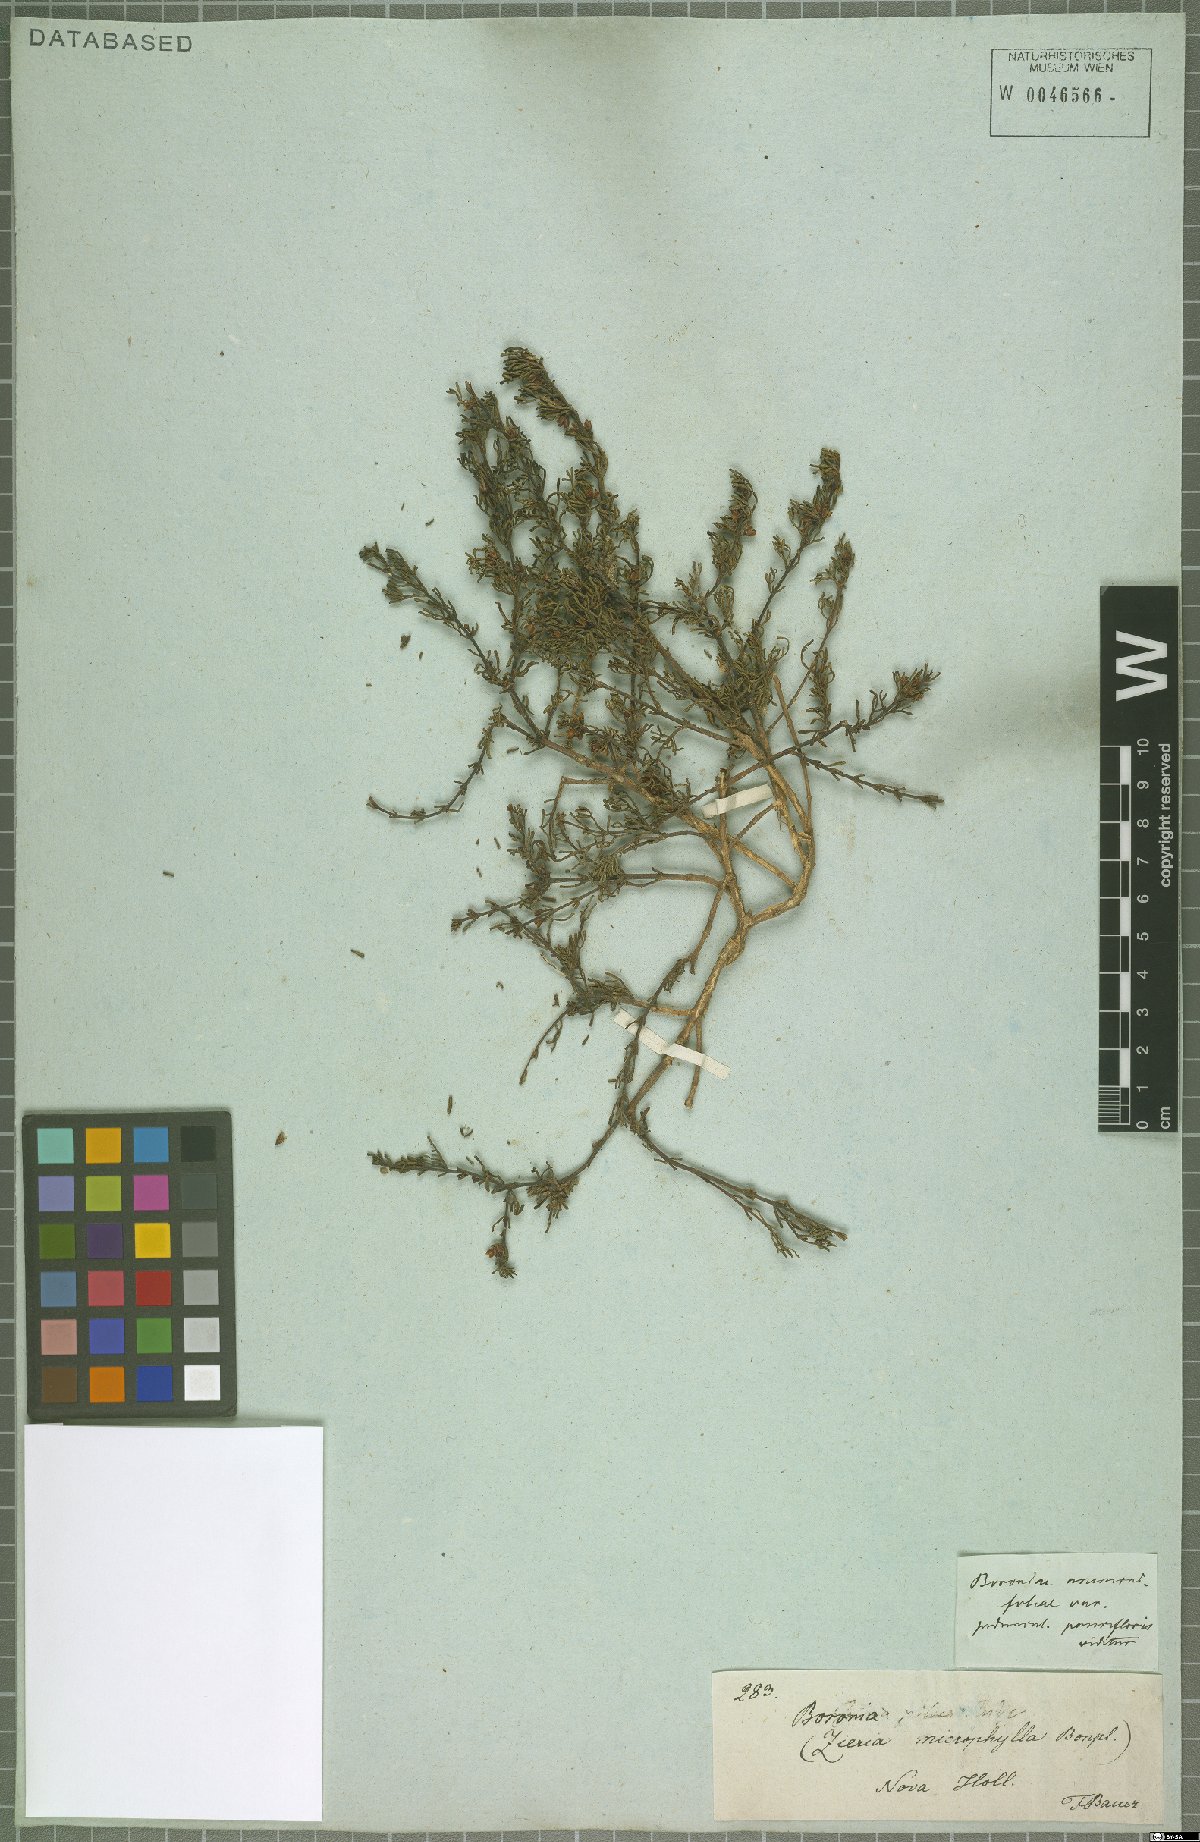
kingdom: Plantae
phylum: Tracheophyta
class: Magnoliopsida
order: Sapindales
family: Rutaceae
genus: Boronia
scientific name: Boronia
